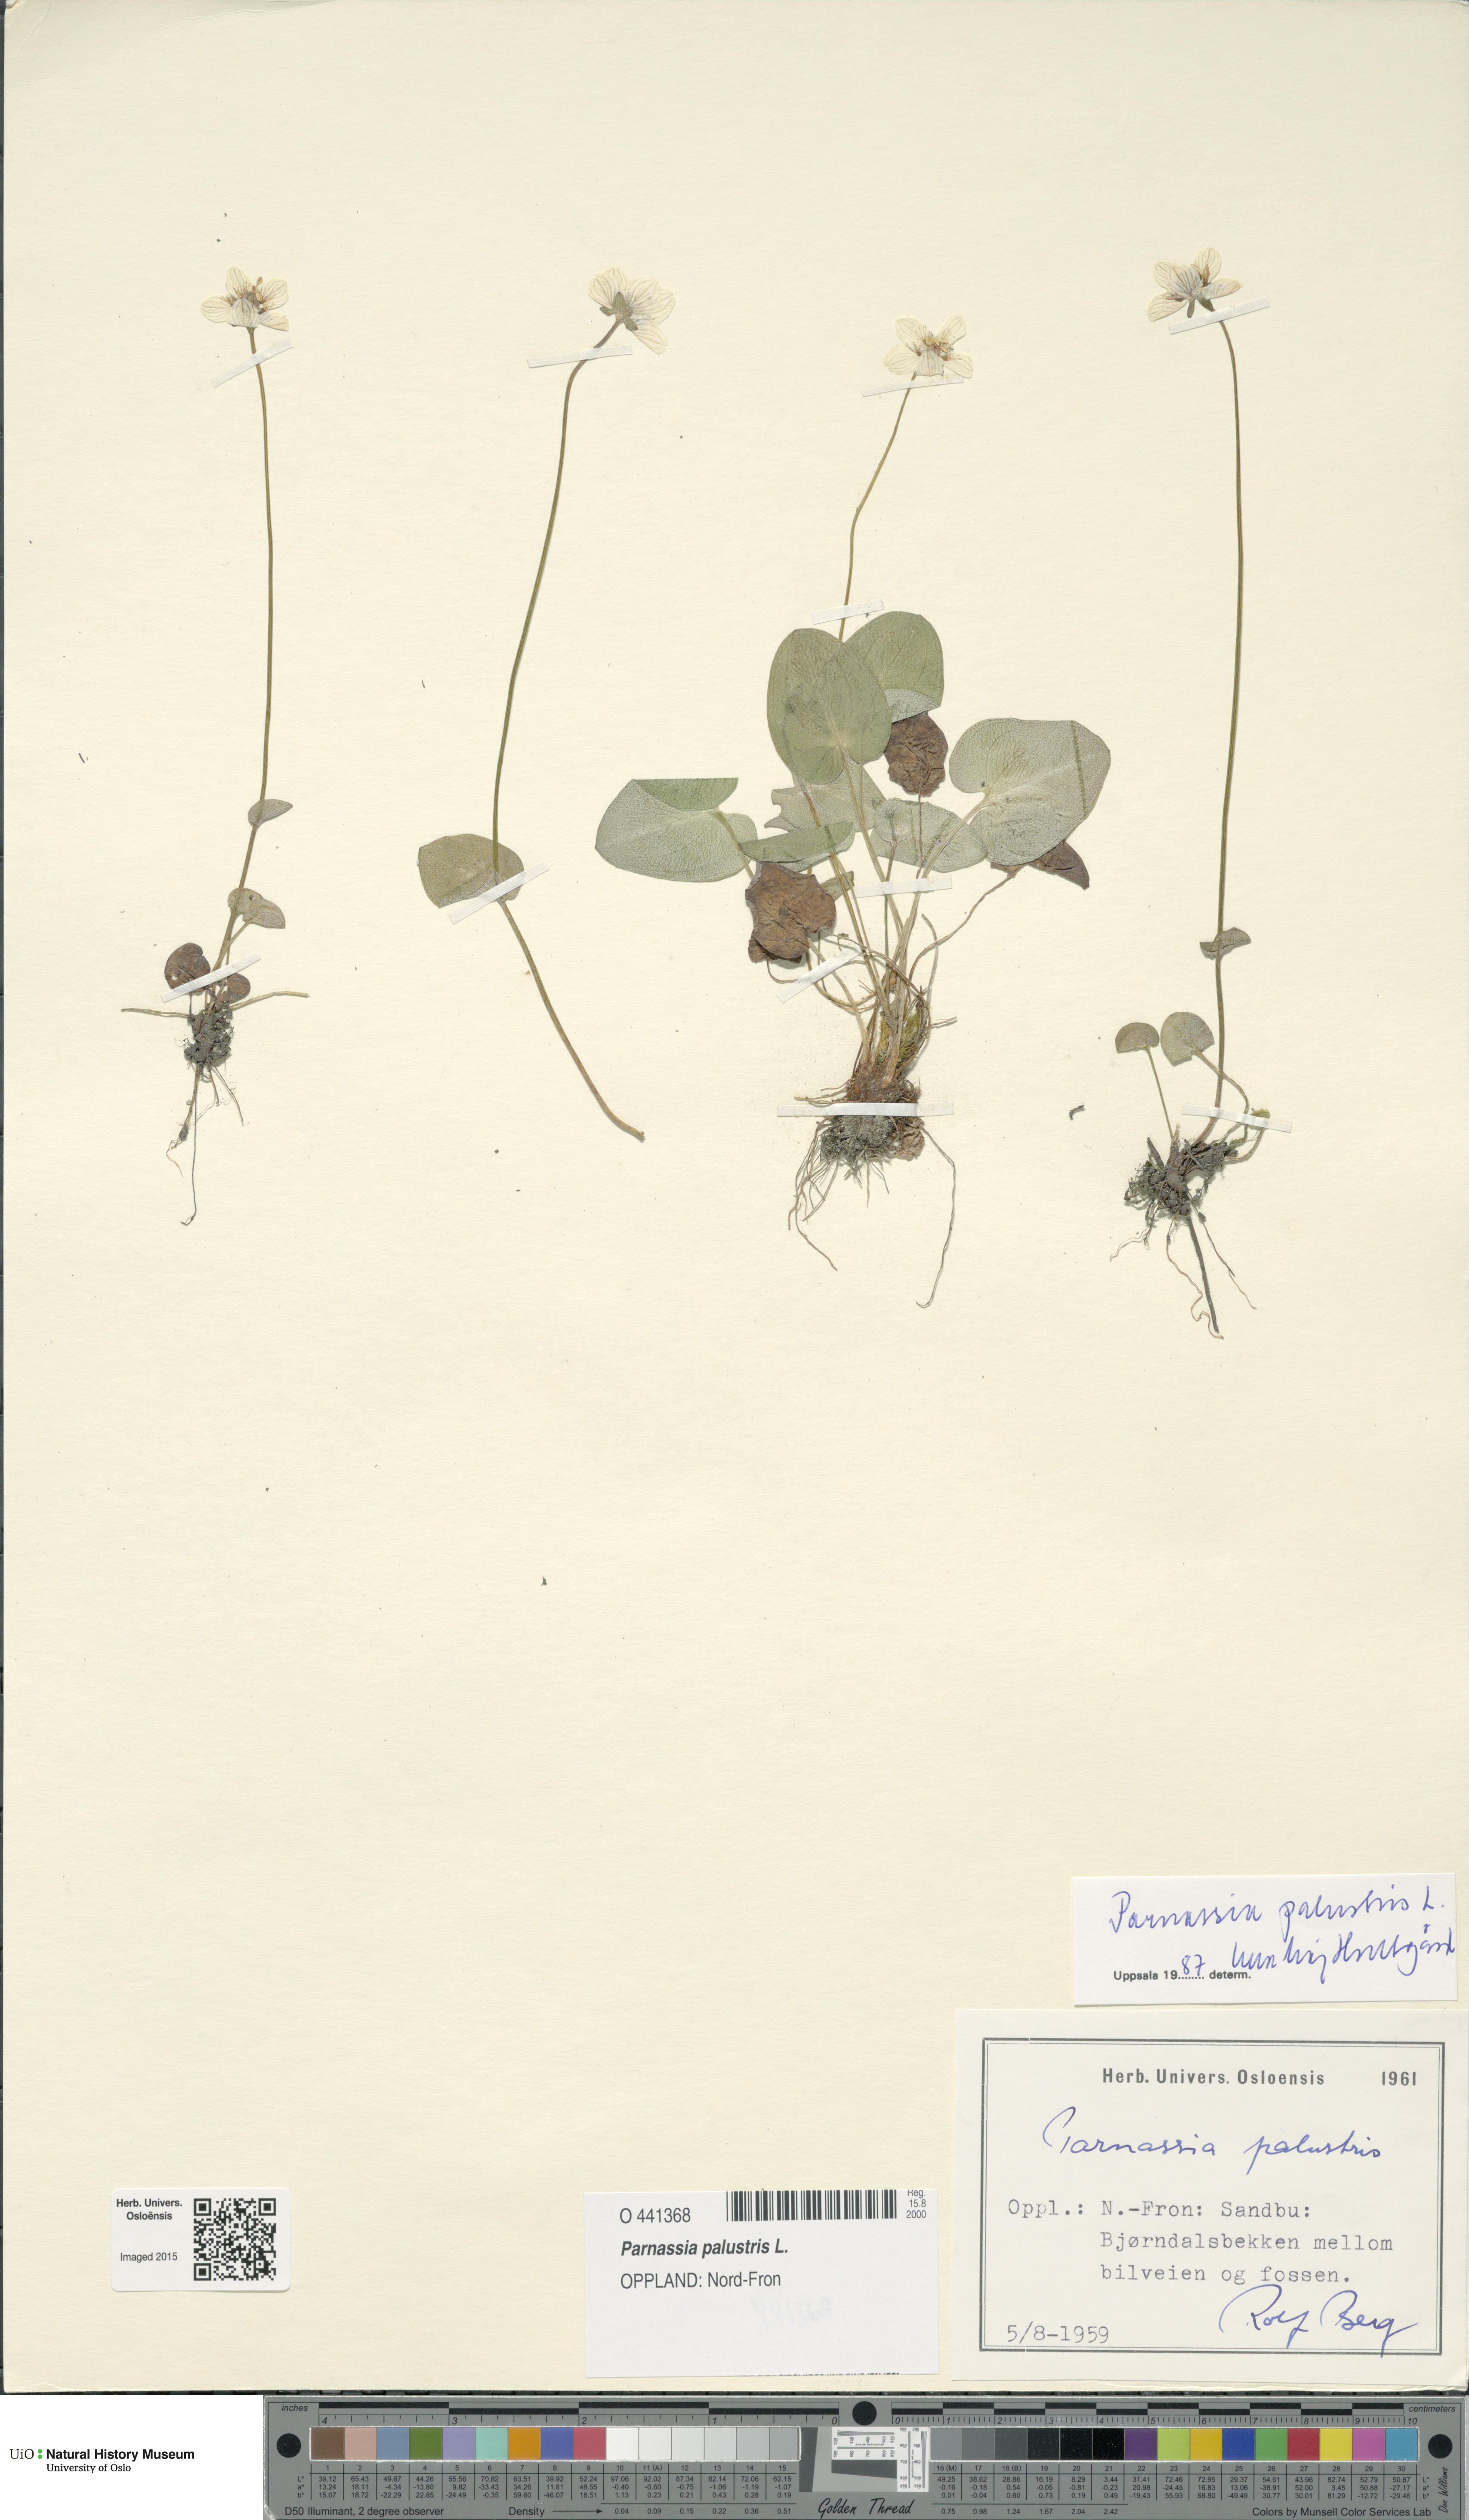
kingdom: Plantae
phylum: Tracheophyta
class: Magnoliopsida
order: Celastrales
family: Parnassiaceae
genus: Parnassia
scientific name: Parnassia palustris
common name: Grass-of-parnassus
